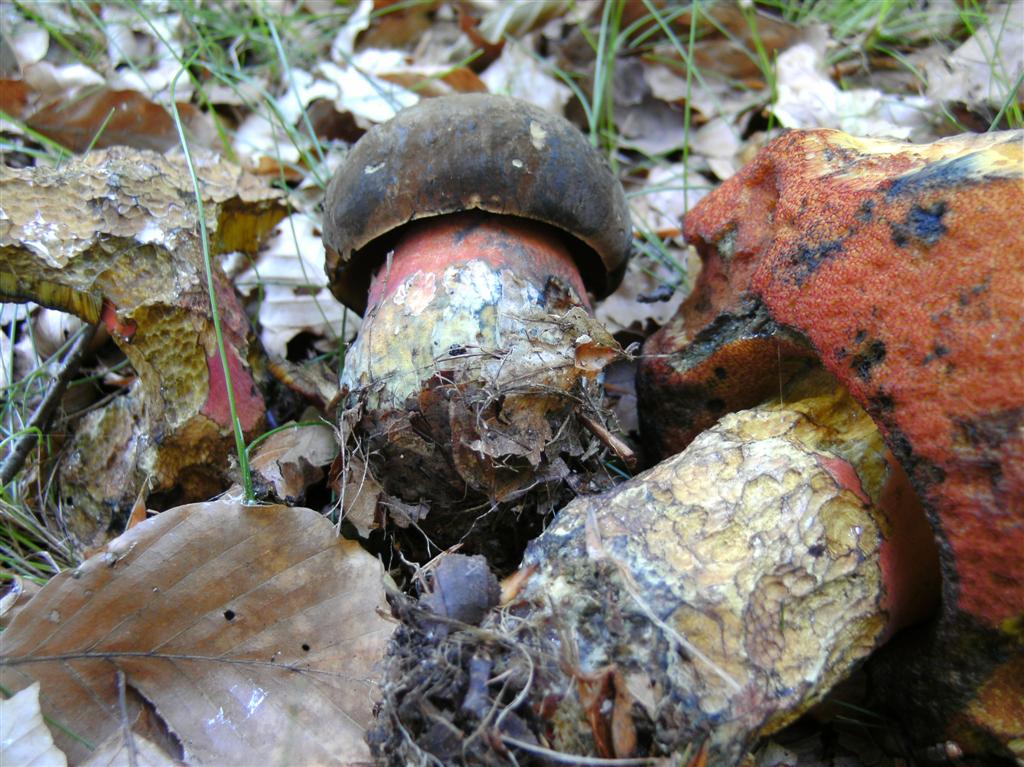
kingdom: Fungi
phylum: Basidiomycota
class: Agaricomycetes
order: Boletales
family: Boletaceae
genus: Neoboletus
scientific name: Neoboletus erythropus
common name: punktstokket indigorørhat
